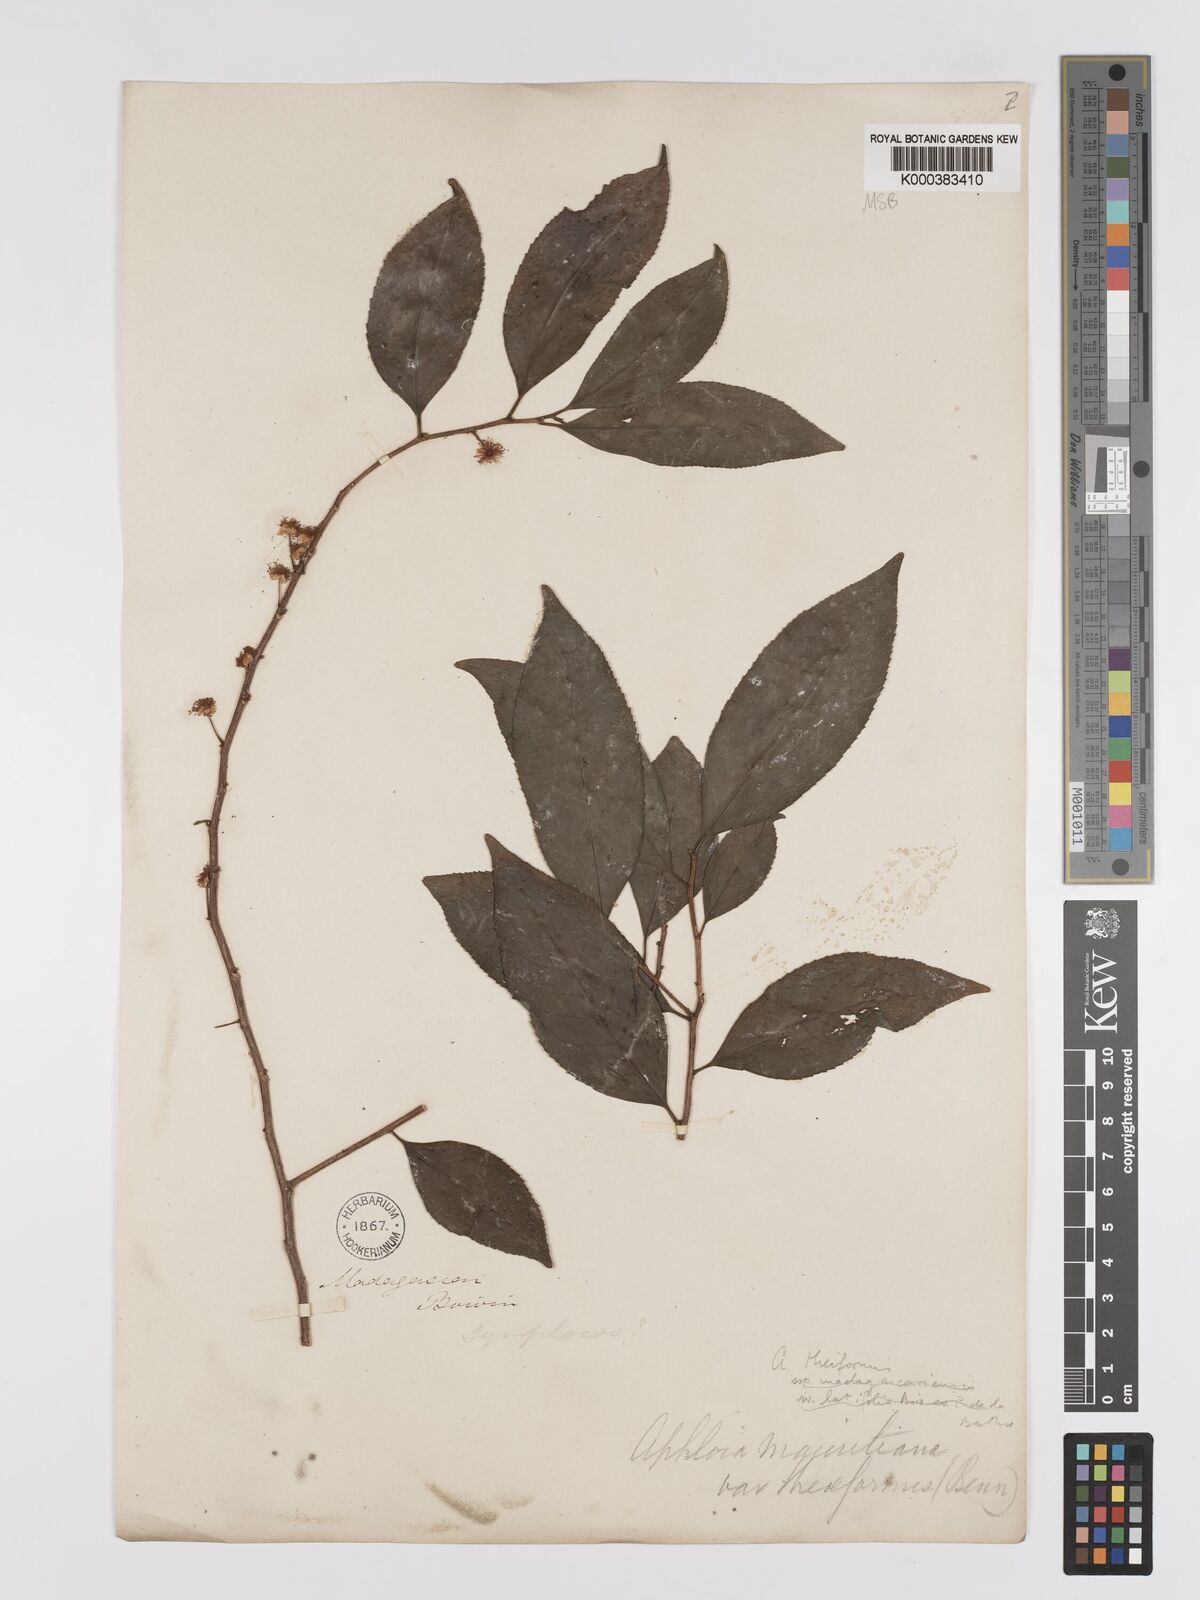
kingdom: Plantae
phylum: Tracheophyta
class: Magnoliopsida
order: Crossosomatales
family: Aphloiaceae
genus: Aphloia
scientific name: Aphloia theiformis
